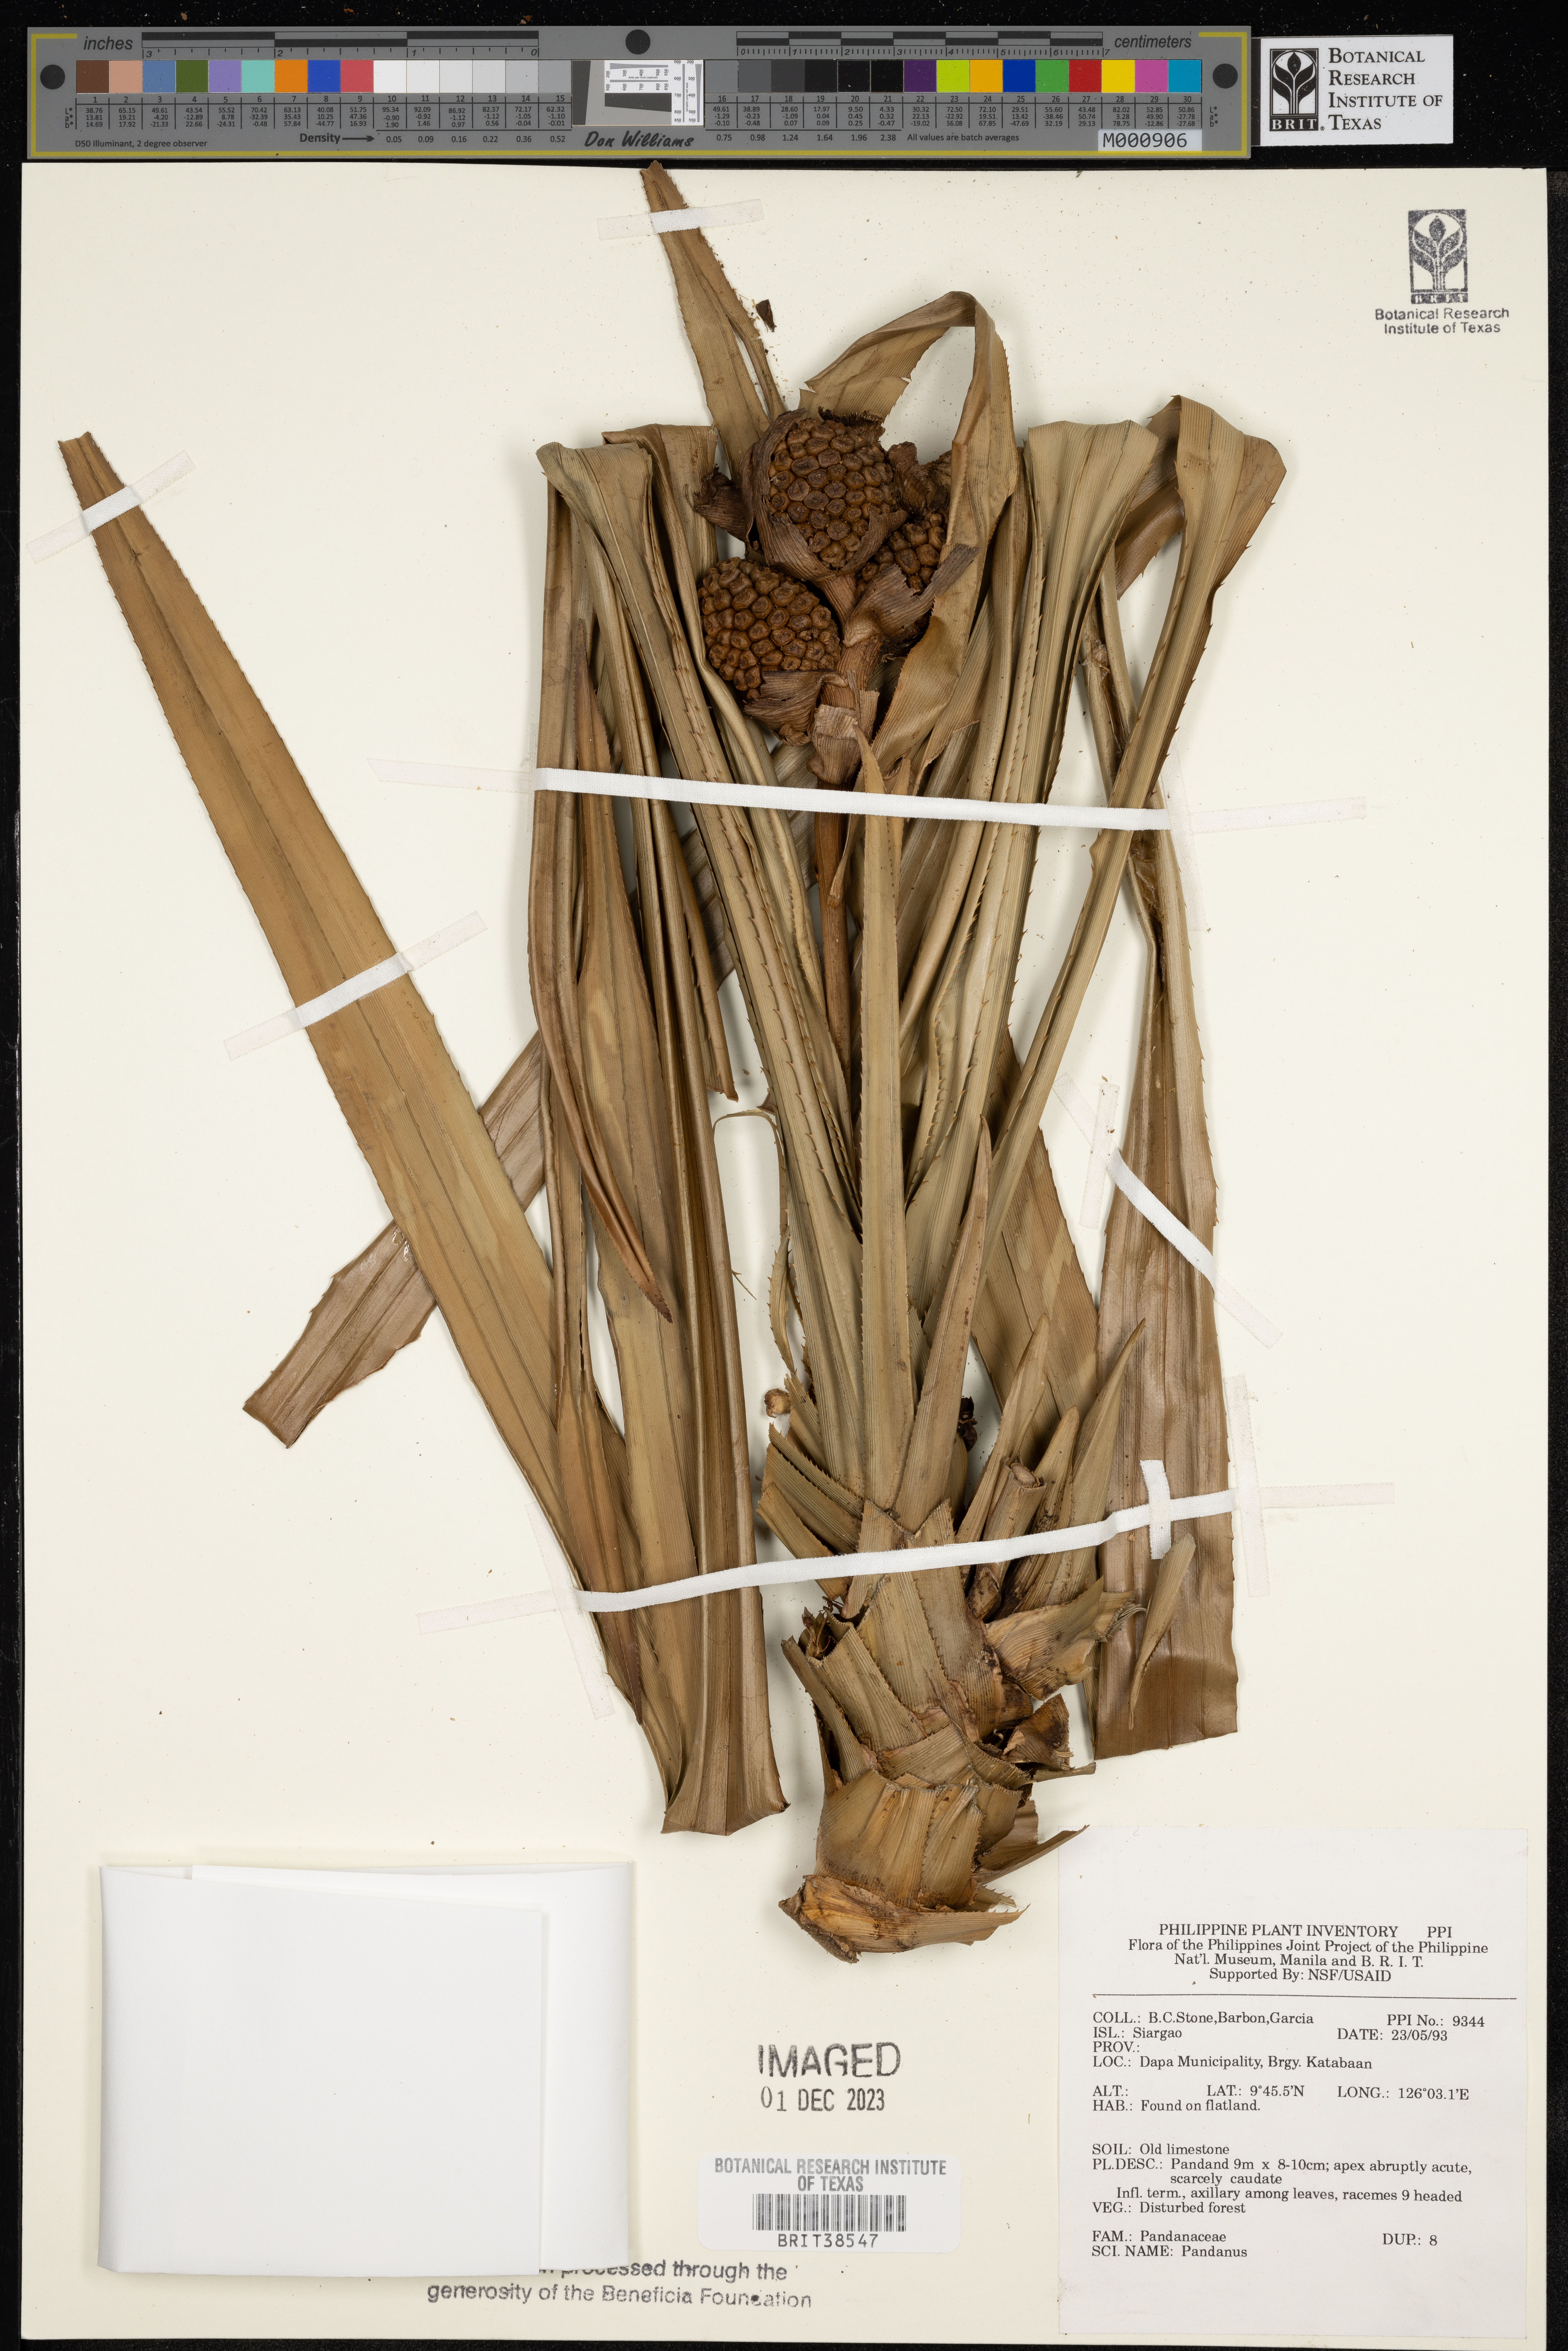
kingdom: Plantae
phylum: Tracheophyta
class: Liliopsida
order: Pandanales
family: Pandanaceae
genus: Pandanus
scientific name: Pandanus
